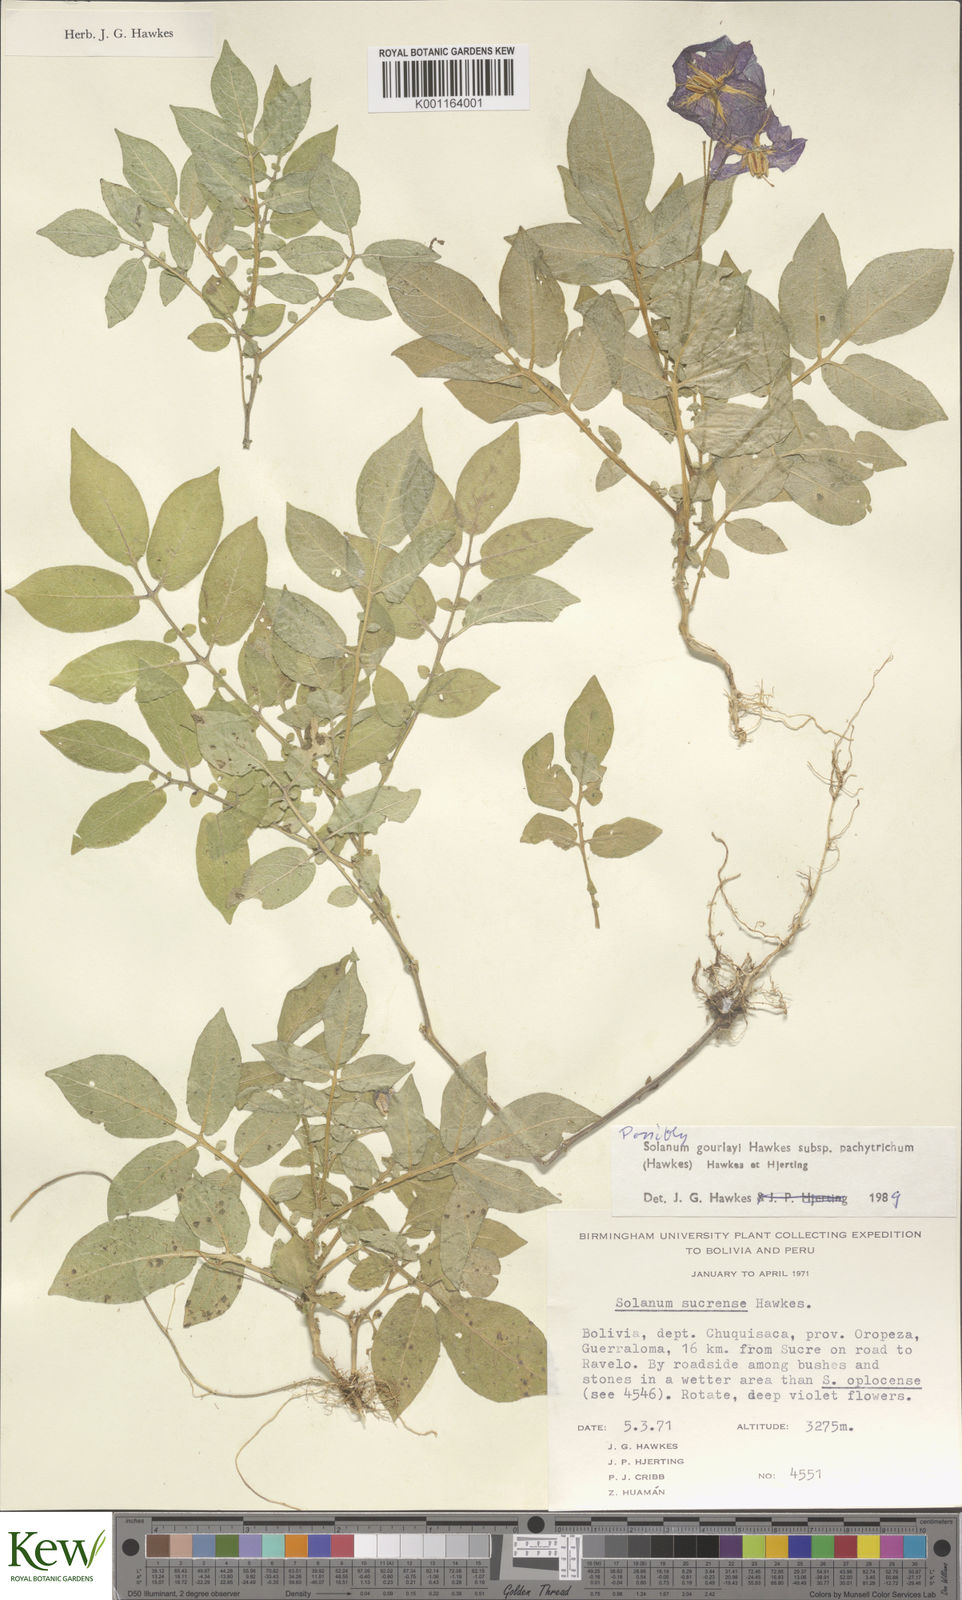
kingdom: Plantae
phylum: Tracheophyta
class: Magnoliopsida
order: Solanales
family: Solanaceae
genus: Solanum
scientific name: Solanum brevicaule
